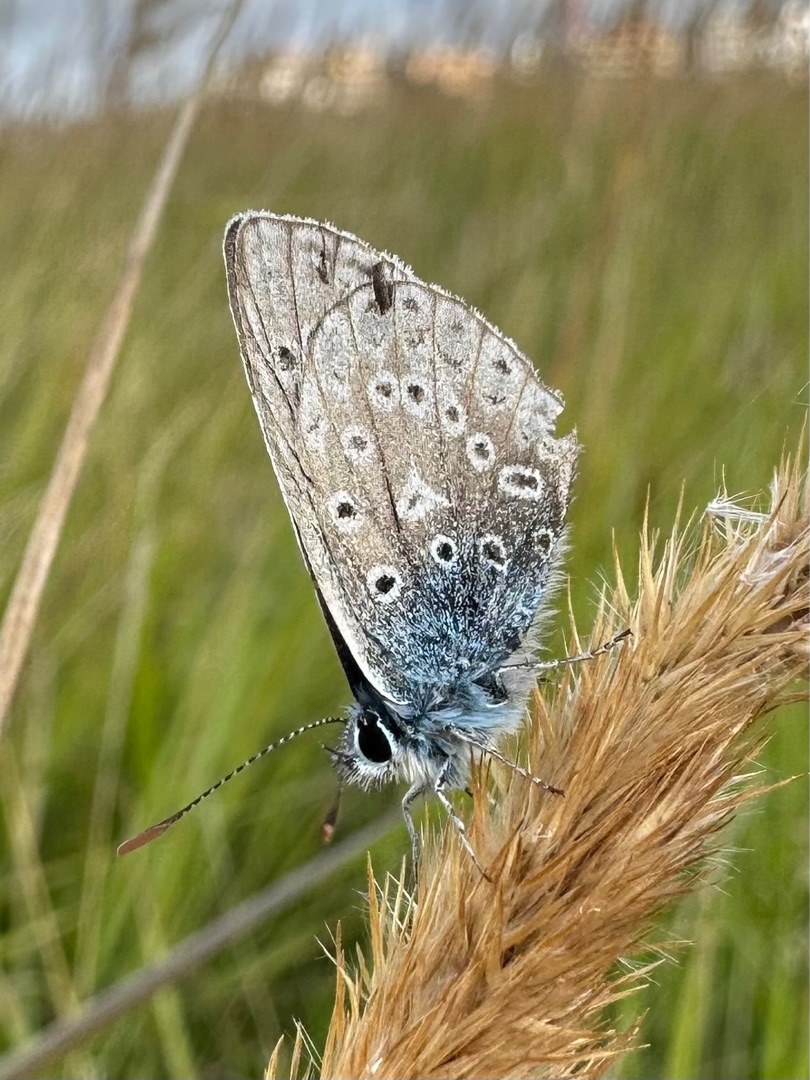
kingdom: Animalia
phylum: Arthropoda
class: Insecta
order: Lepidoptera
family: Lycaenidae
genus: Polyommatus
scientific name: Polyommatus icarus
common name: Almindelig blåfugl
